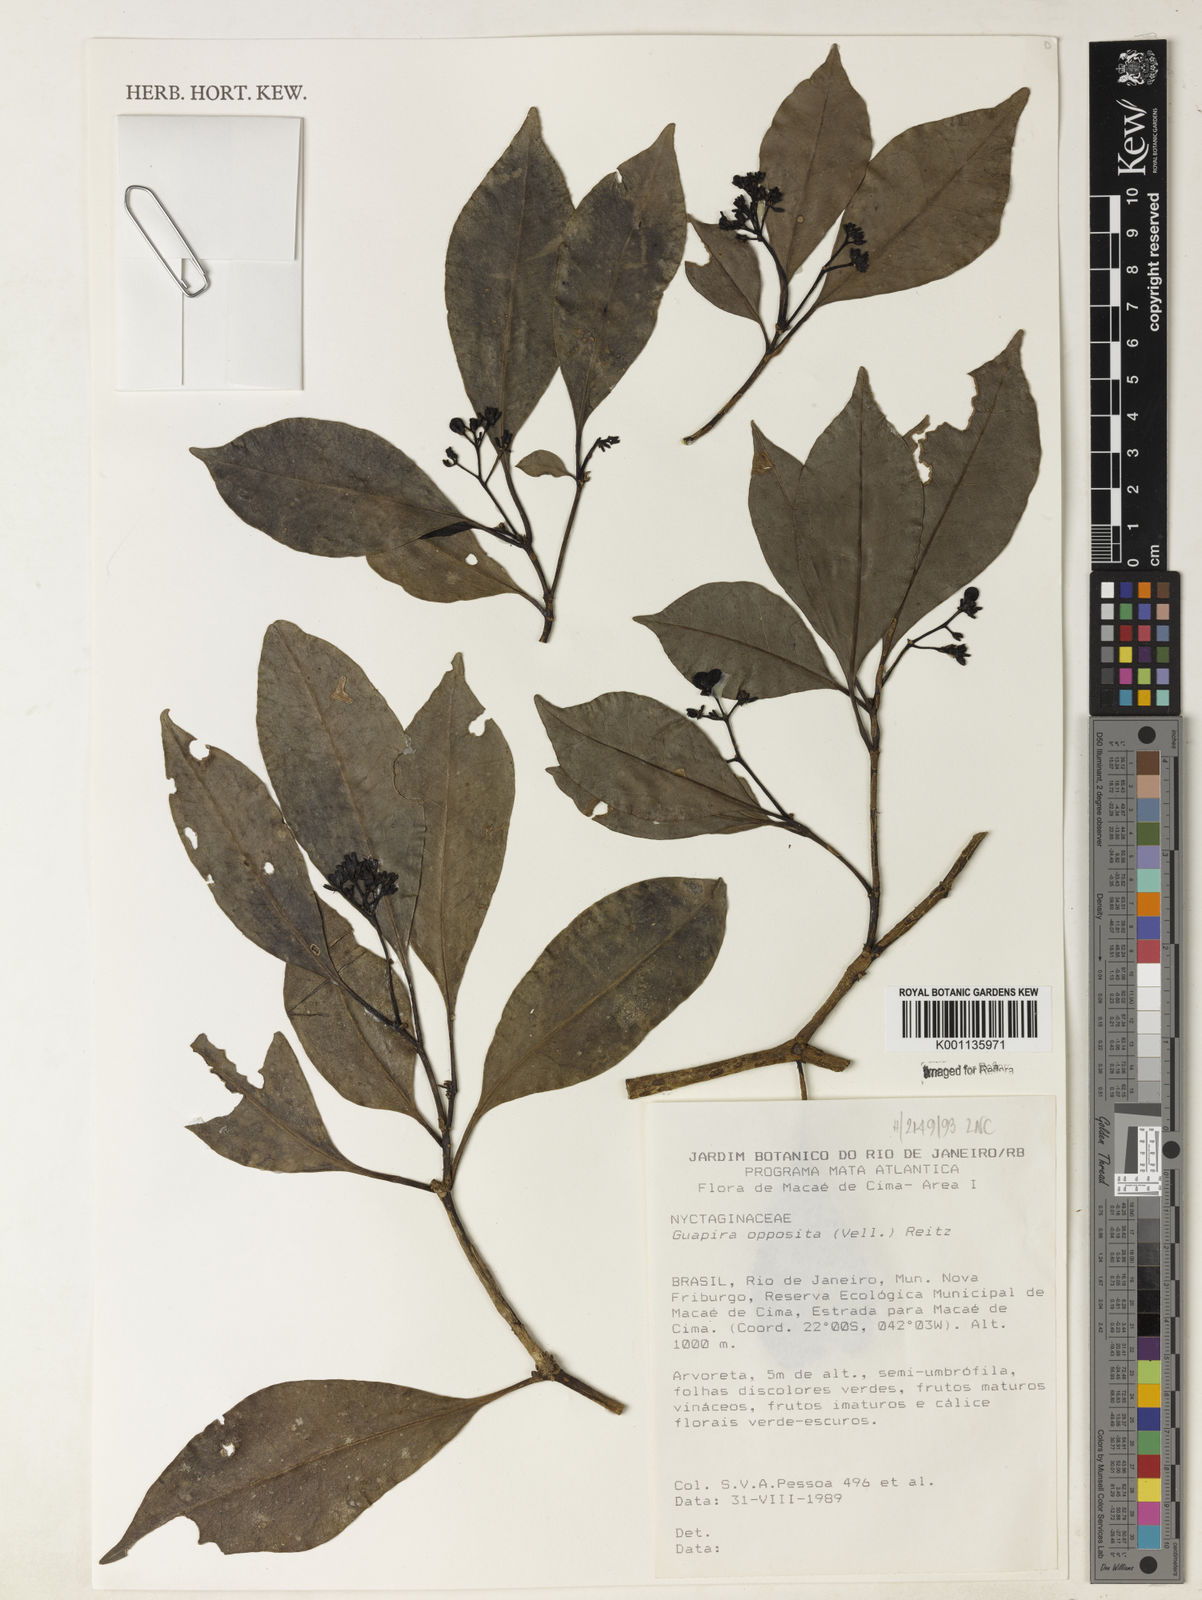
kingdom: Plantae
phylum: Tracheophyta
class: Magnoliopsida
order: Caryophyllales
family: Nyctaginaceae
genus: Guapira
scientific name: Guapira opposita
